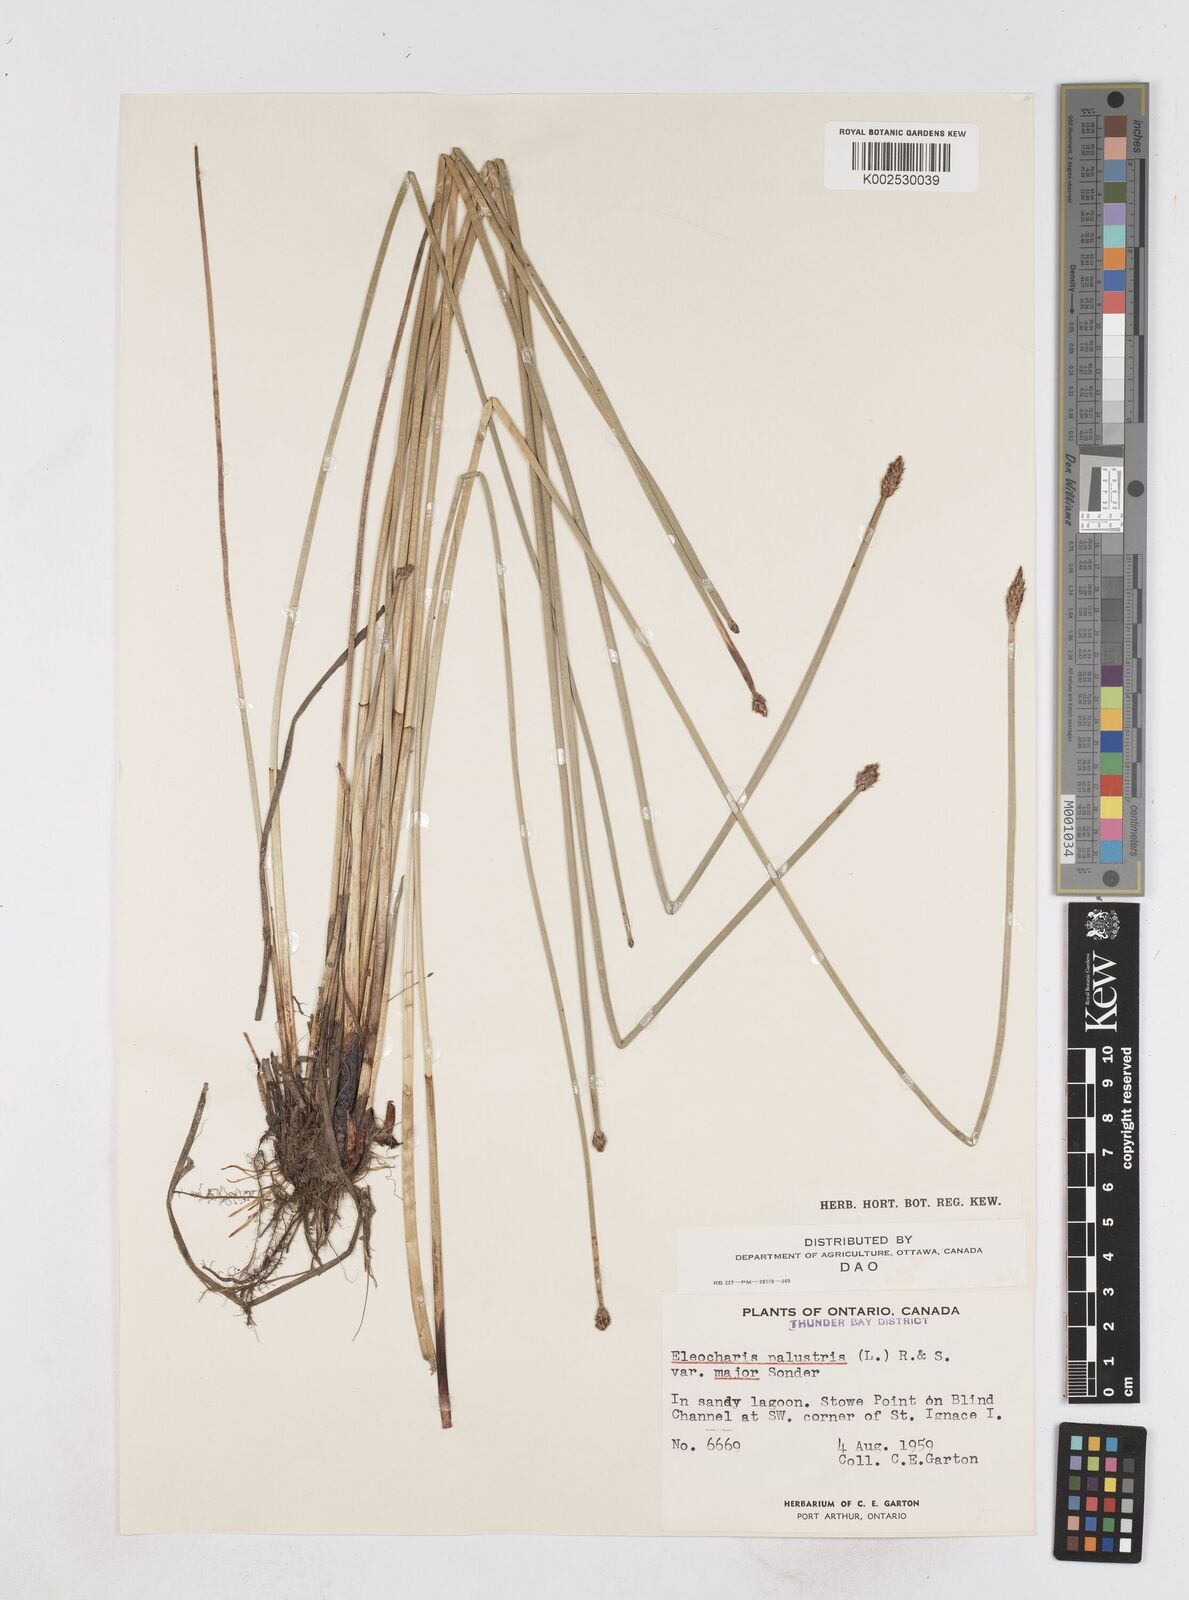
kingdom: Plantae
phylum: Tracheophyta
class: Liliopsida
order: Poales
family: Cyperaceae
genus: Eleocharis
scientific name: Eleocharis palustris
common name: Common spike-rush
